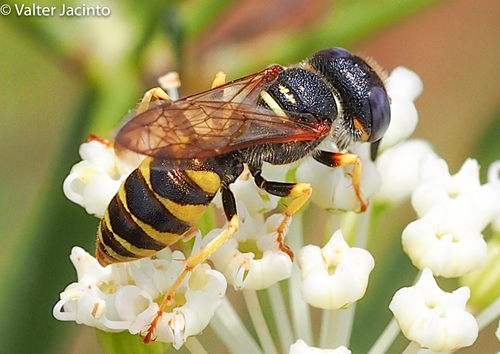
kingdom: Animalia
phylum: Arthropoda
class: Insecta
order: Hymenoptera
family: Crabronidae
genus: Philanthus
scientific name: Philanthus triangulum
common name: Bee wolf
